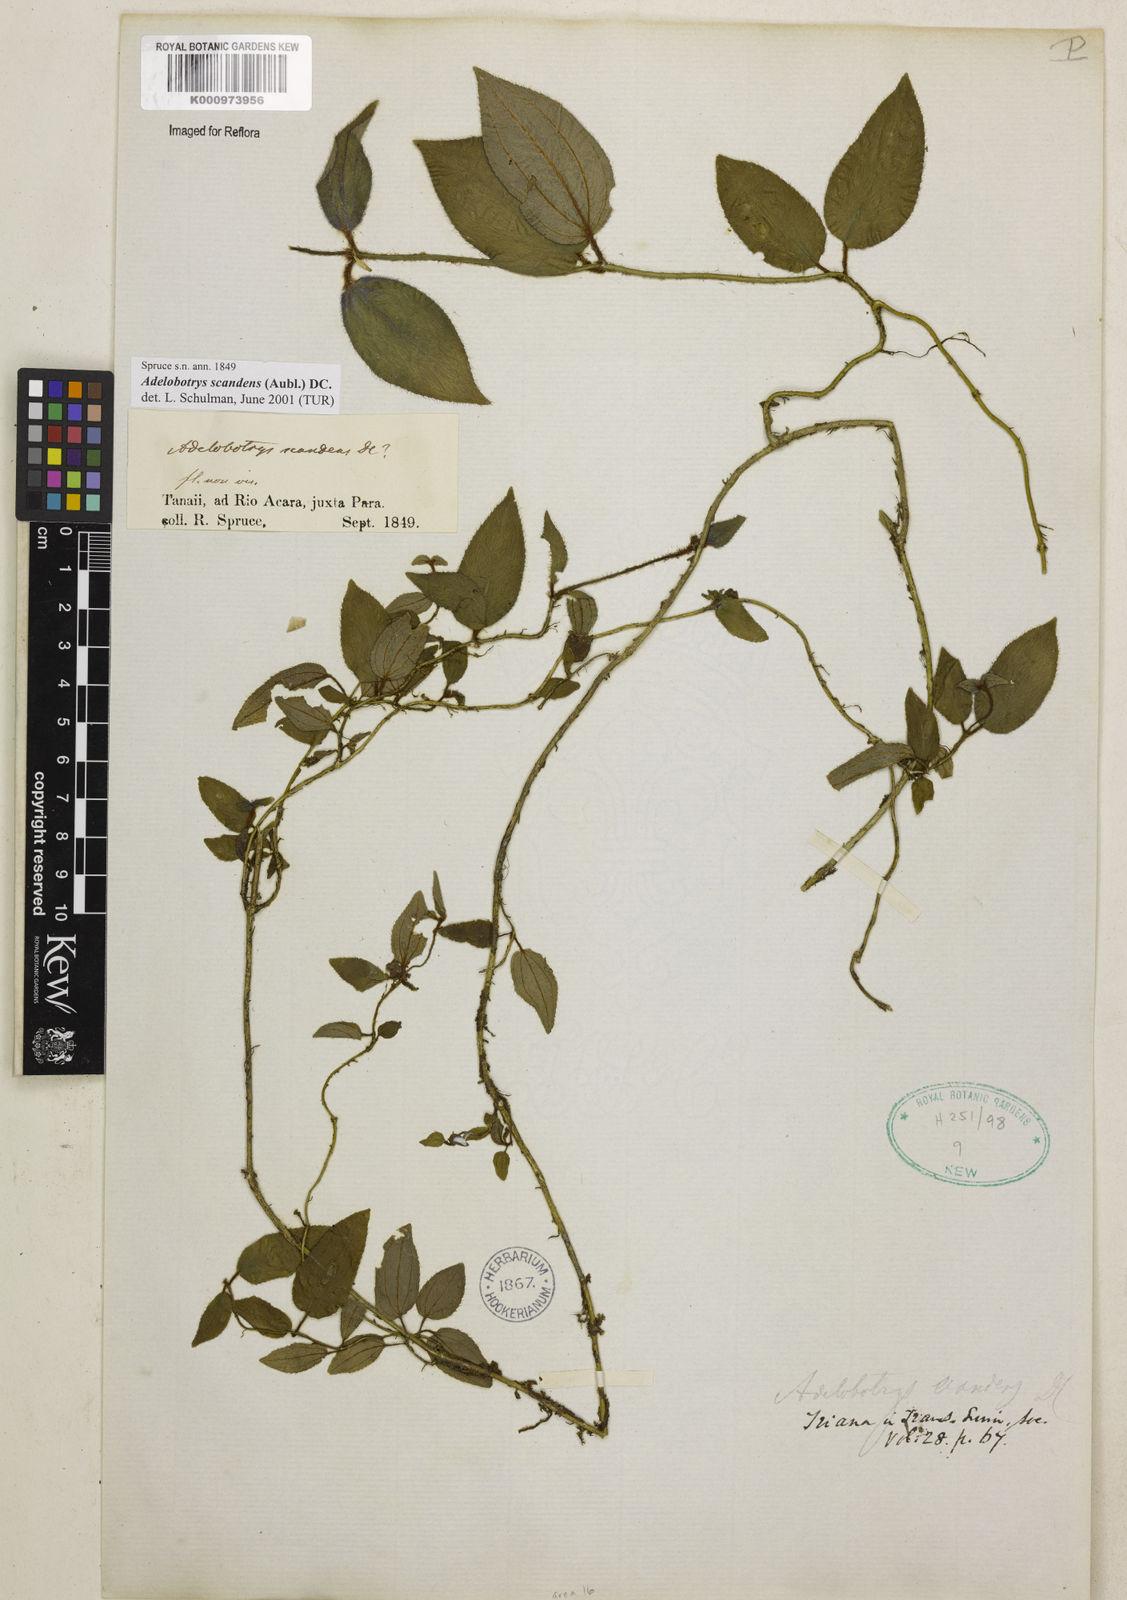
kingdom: Plantae
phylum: Tracheophyta
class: Magnoliopsida
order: Myrtales
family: Melastomataceae
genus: Adelobotrys
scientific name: Adelobotrys scandens
